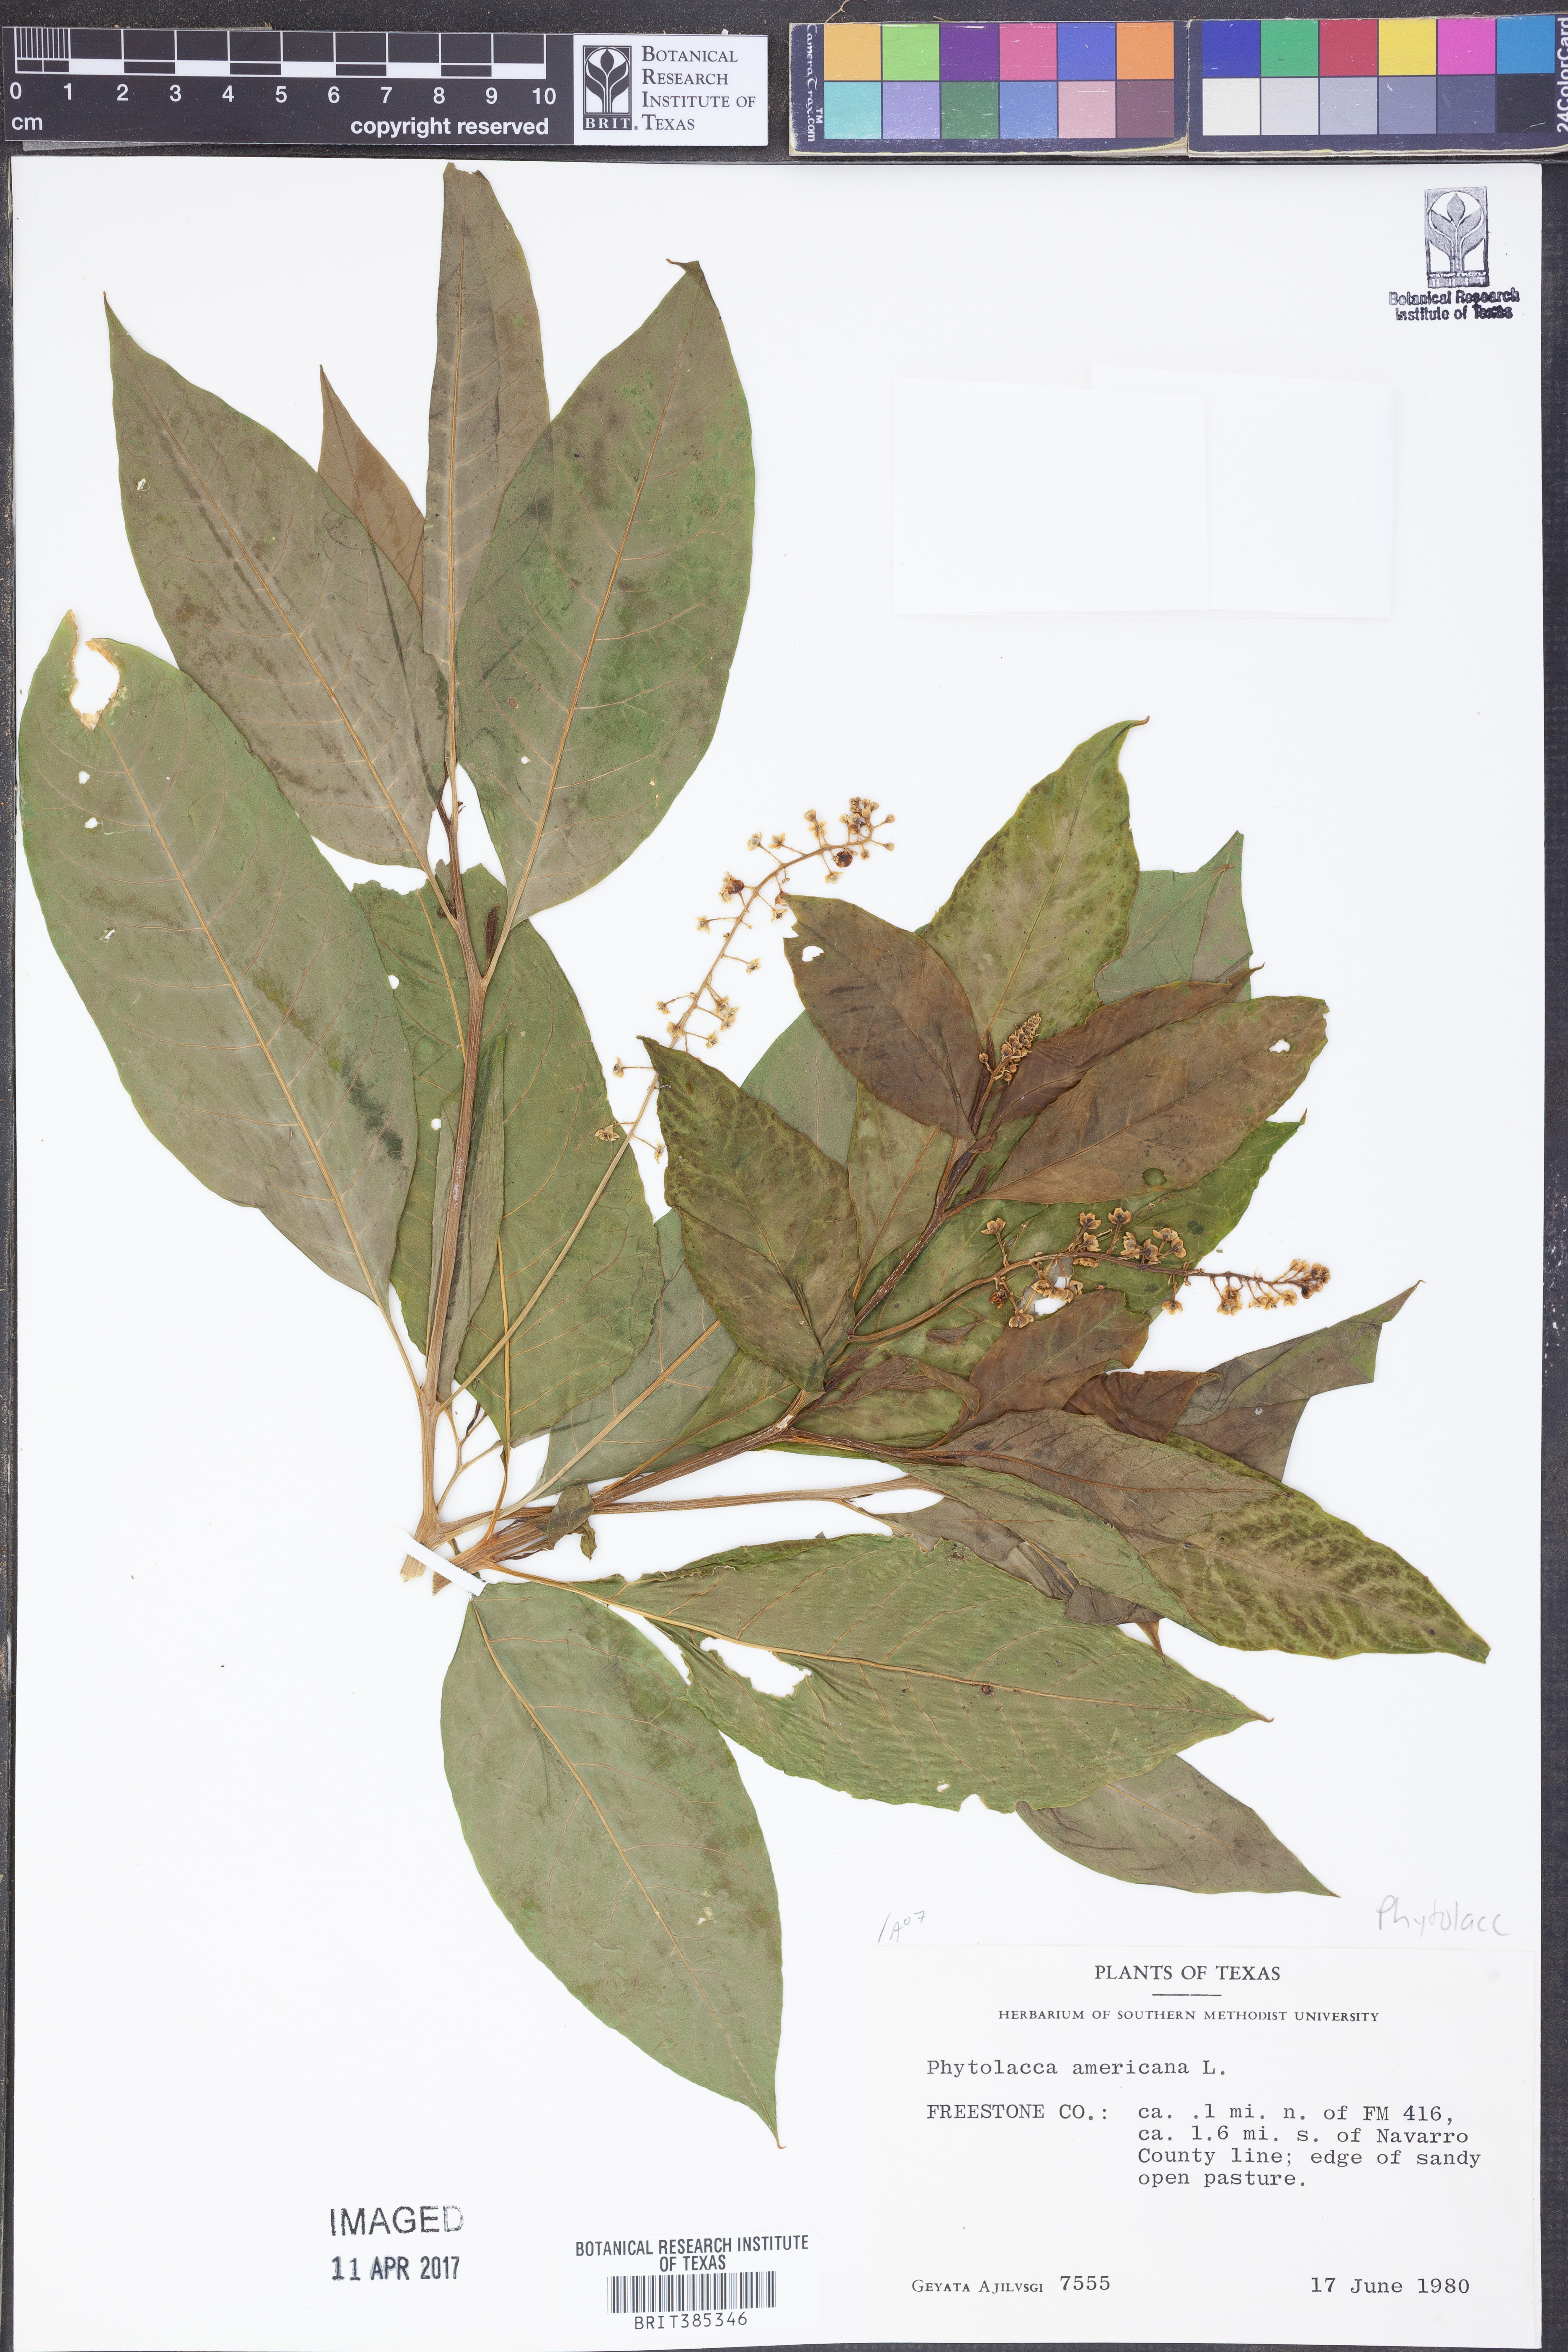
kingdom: Plantae
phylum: Tracheophyta
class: Magnoliopsida
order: Caryophyllales
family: Phytolaccaceae
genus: Phytolacca
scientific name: Phytolacca americana
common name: American pokeweed
